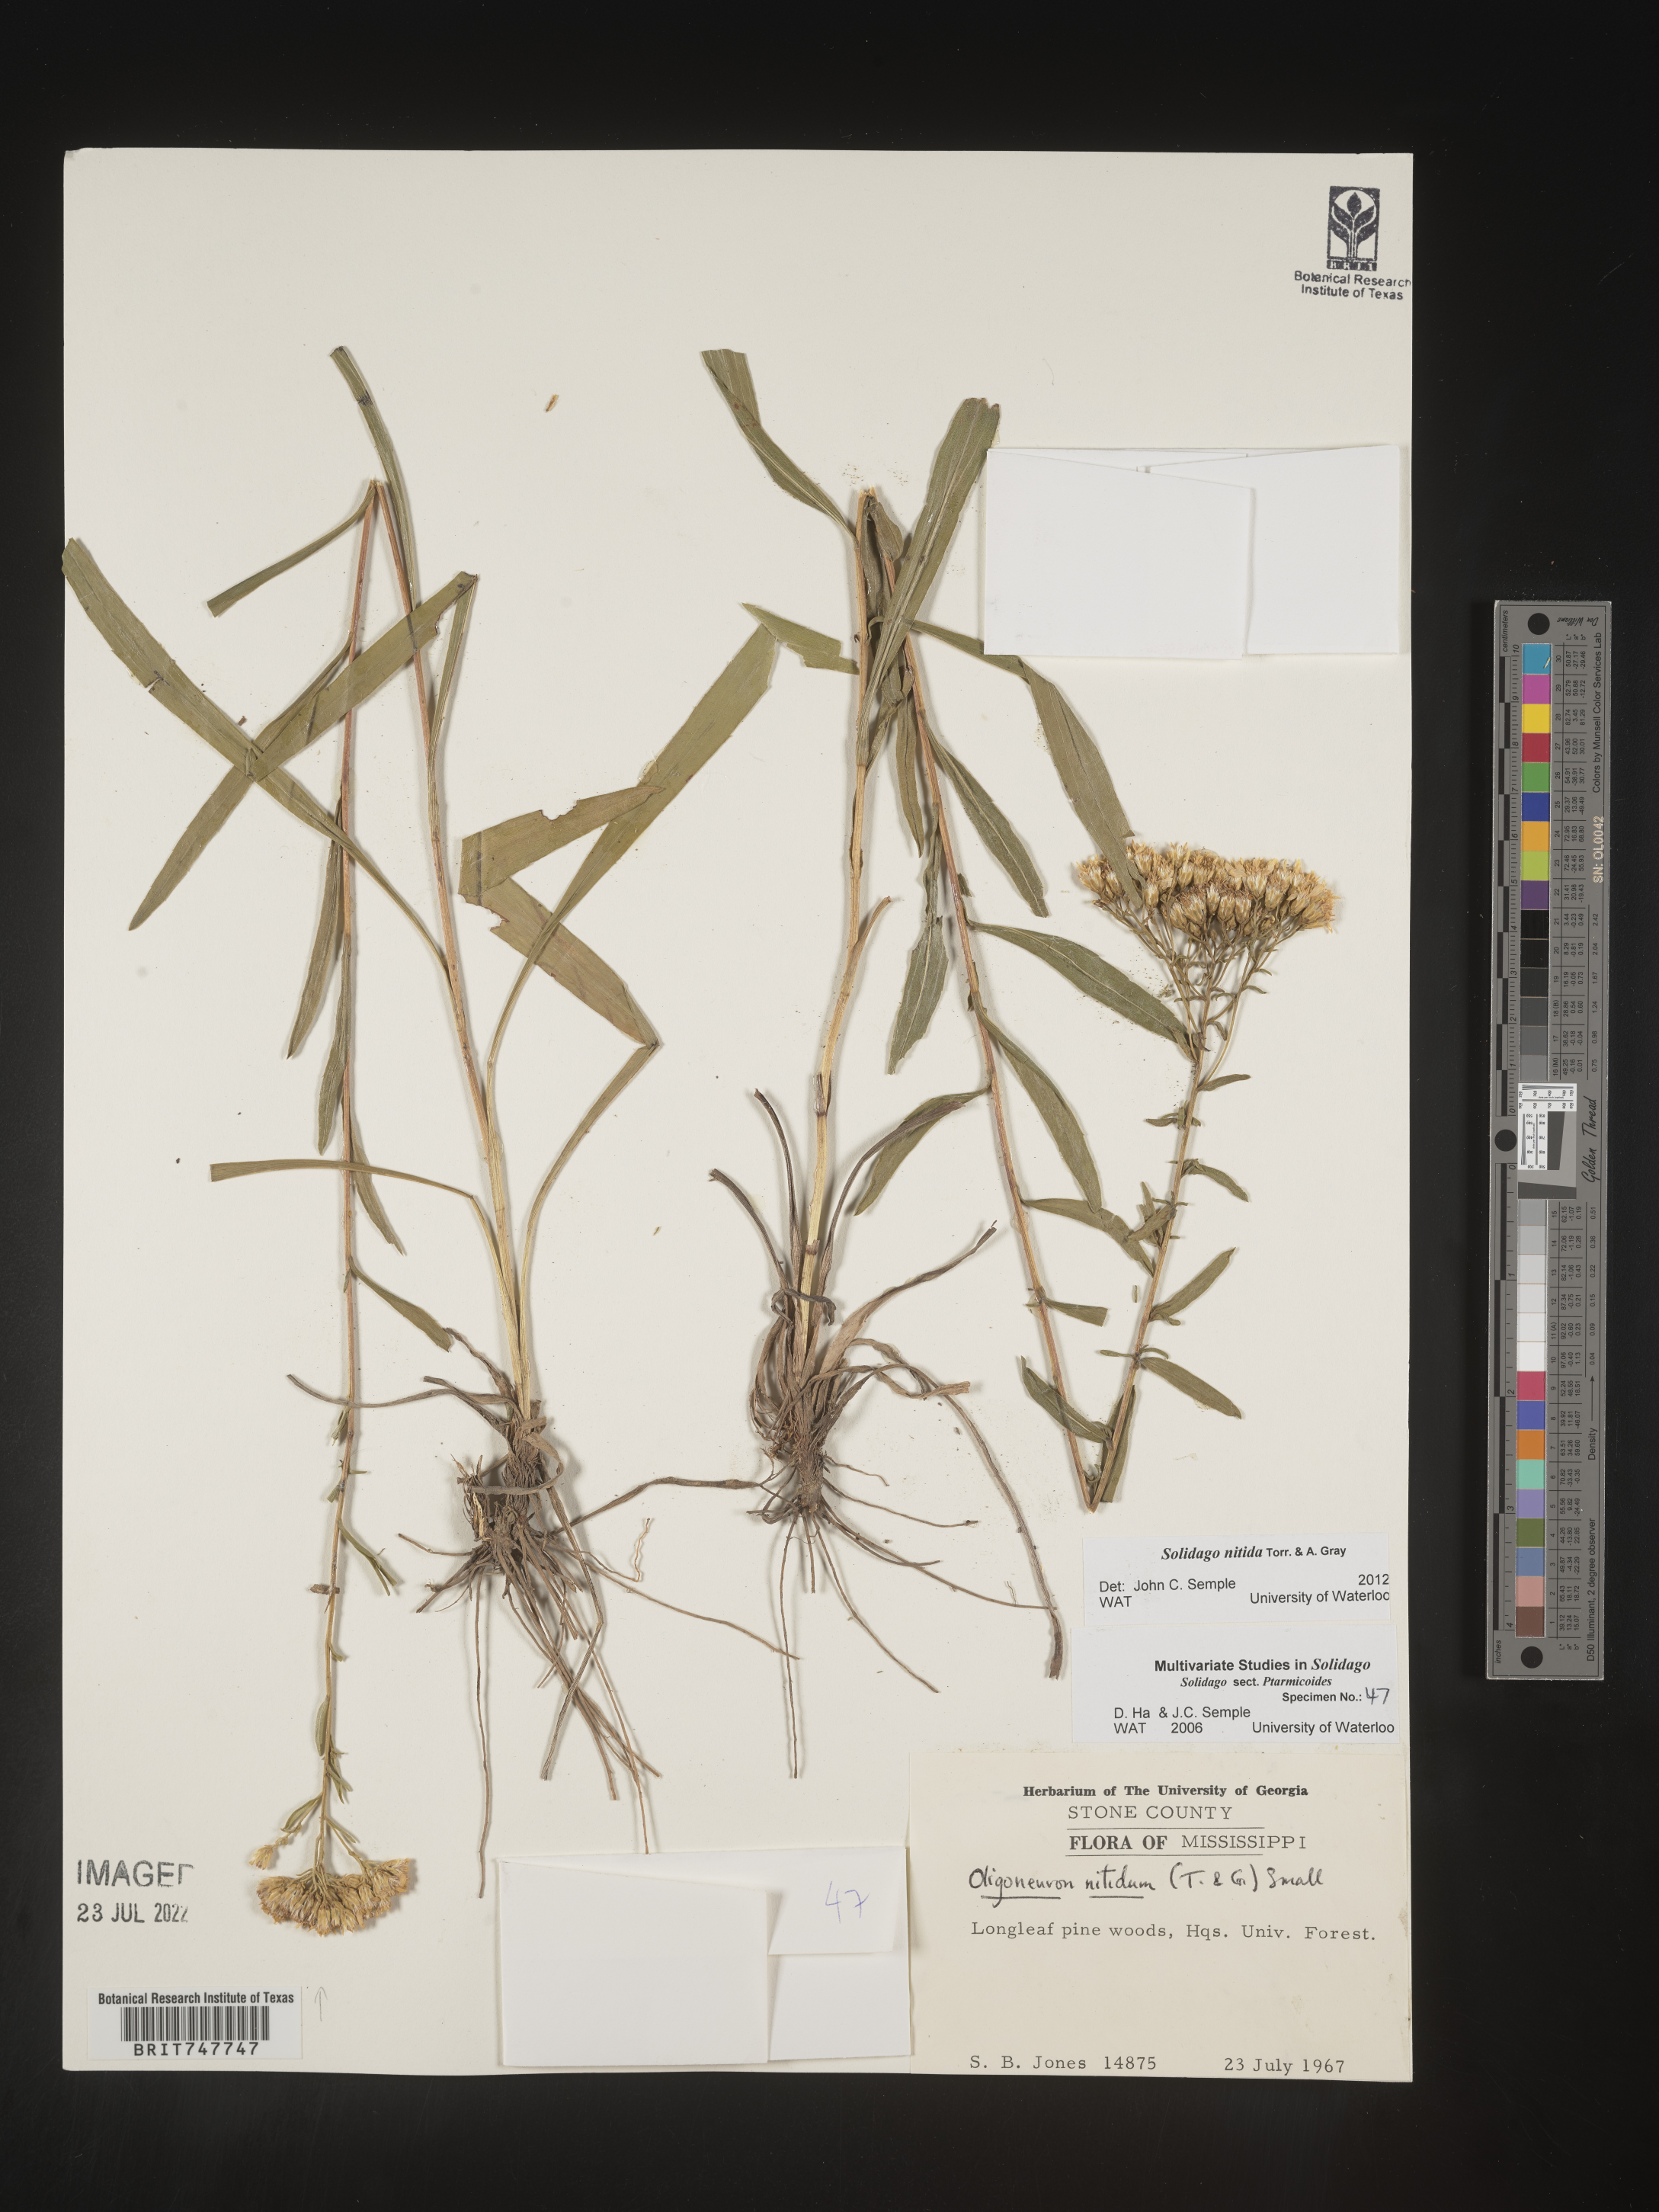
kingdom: Plantae
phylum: Tracheophyta
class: Magnoliopsida
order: Asterales
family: Asteraceae
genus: Solidago
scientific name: Solidago nitida
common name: Shiny goldenrod
